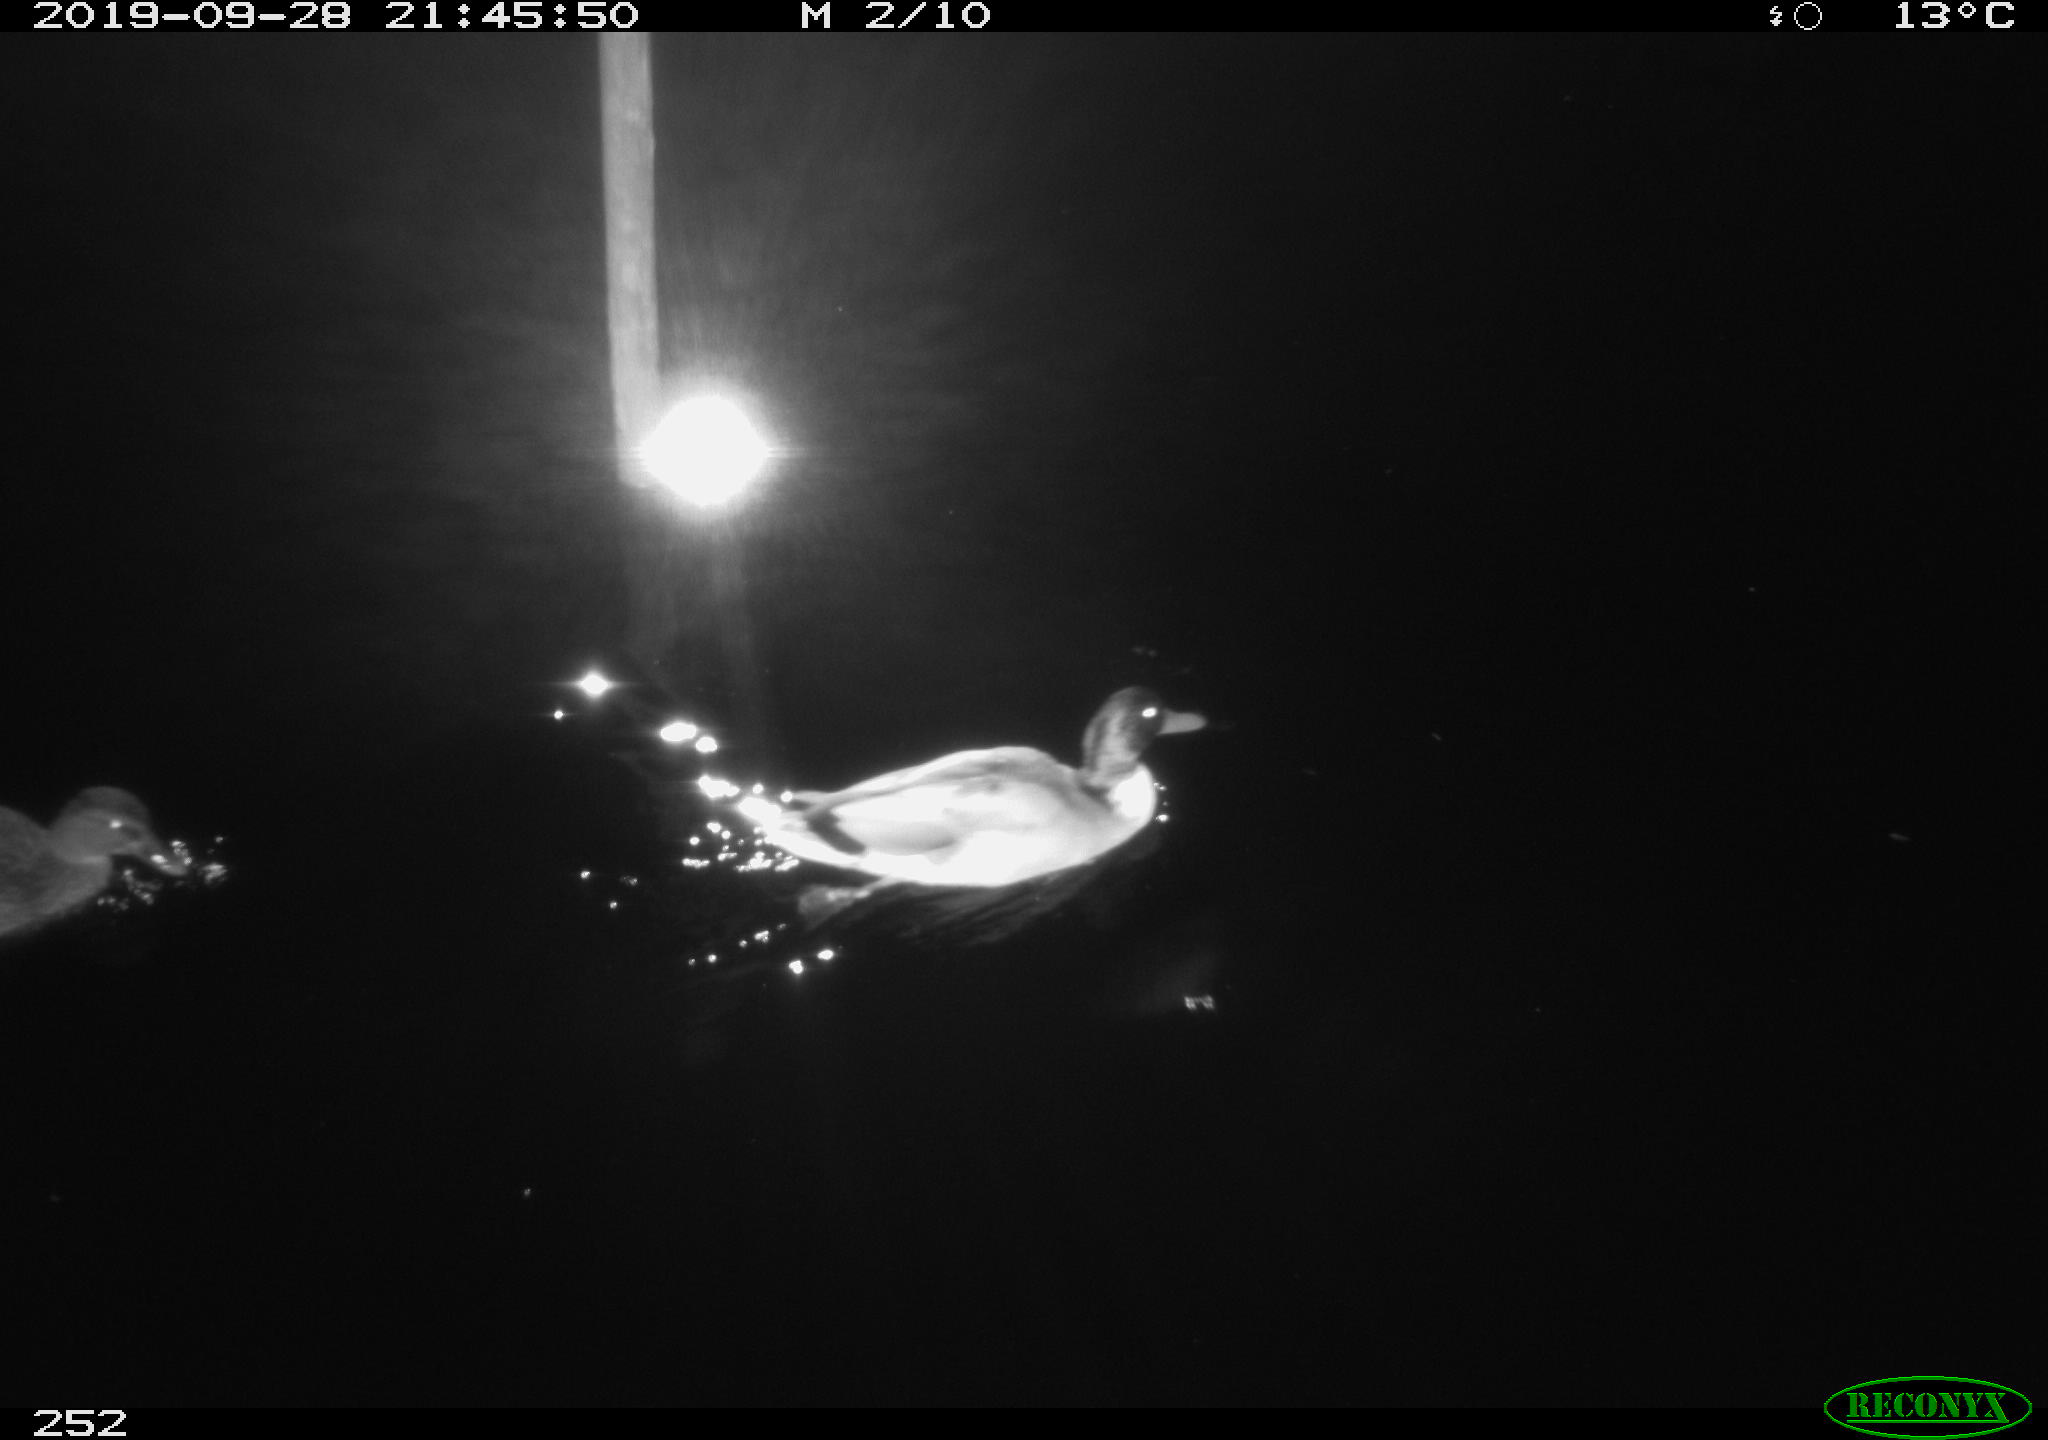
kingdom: Animalia
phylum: Chordata
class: Aves
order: Anseriformes
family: Anatidae
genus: Anas
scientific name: Anas platyrhynchos
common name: Mallard
